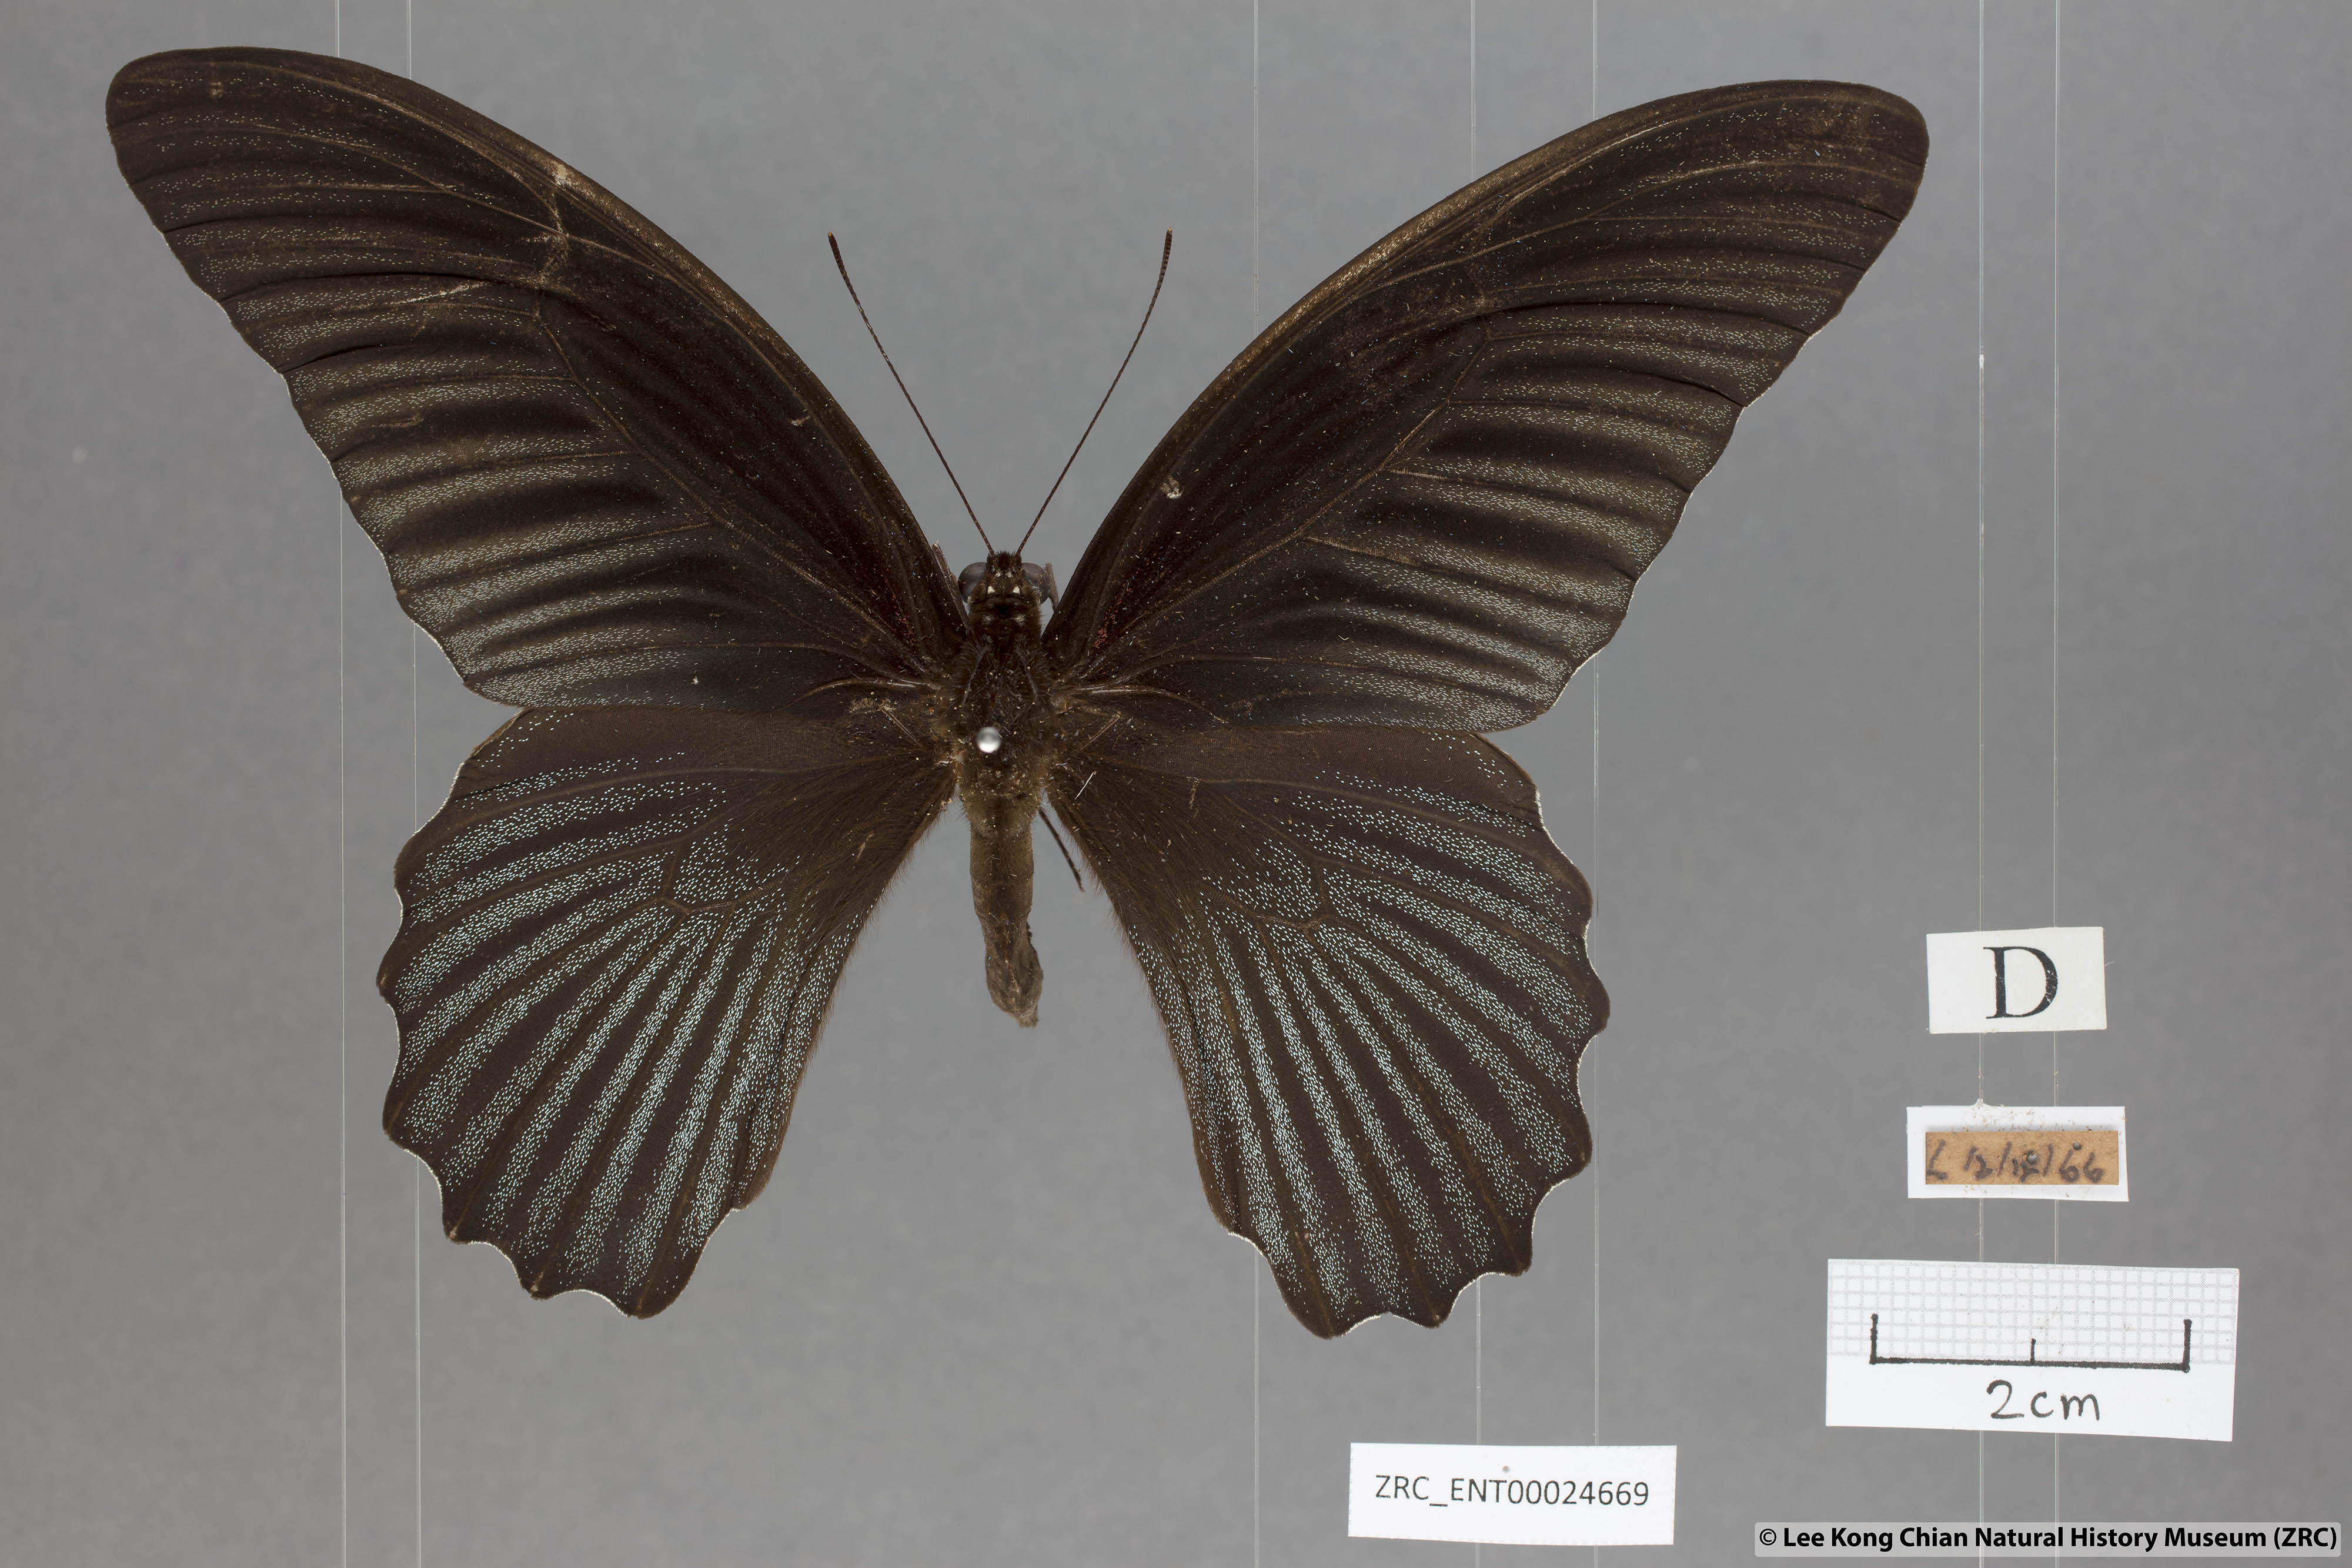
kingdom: Animalia
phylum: Arthropoda
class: Insecta
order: Lepidoptera
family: Papilionidae
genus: Papilio
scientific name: Papilio memnon
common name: Great mormon
